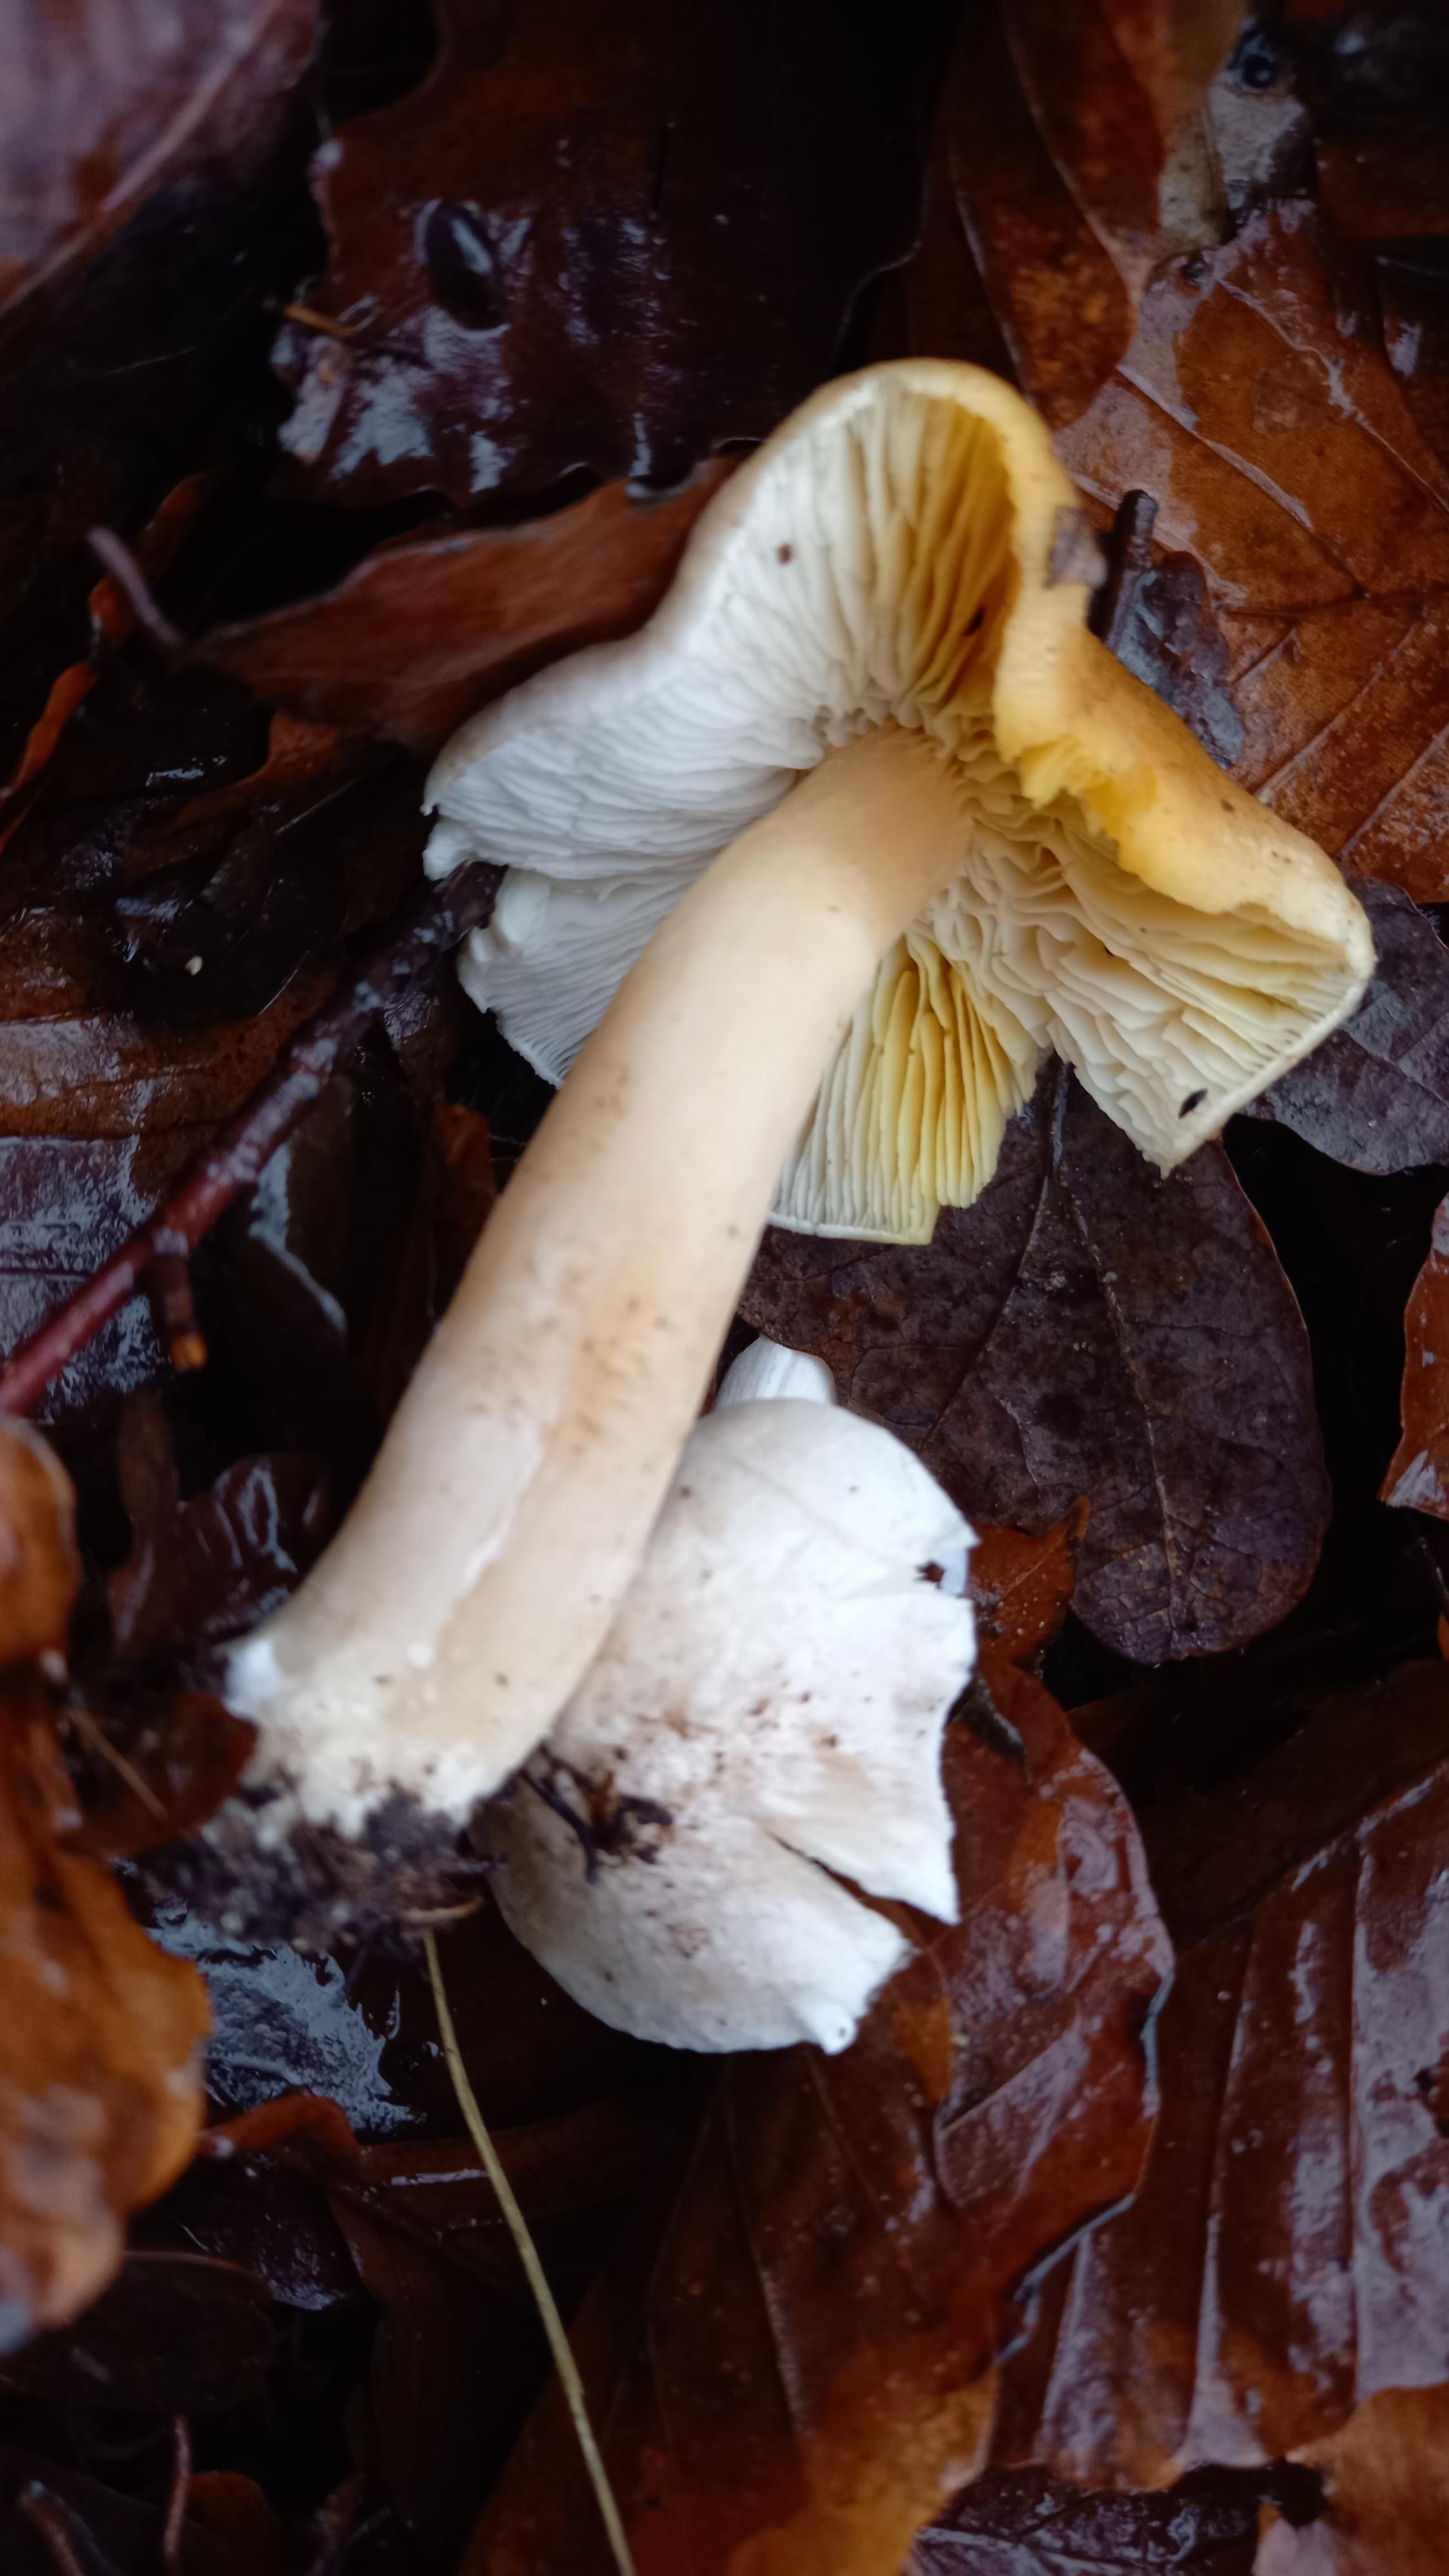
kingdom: Fungi
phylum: Basidiomycota
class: Agaricomycetes
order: Agaricales
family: Tricholomataceae
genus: Tricholoma
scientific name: Tricholoma scalpturatum
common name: gulplettet ridderhat
